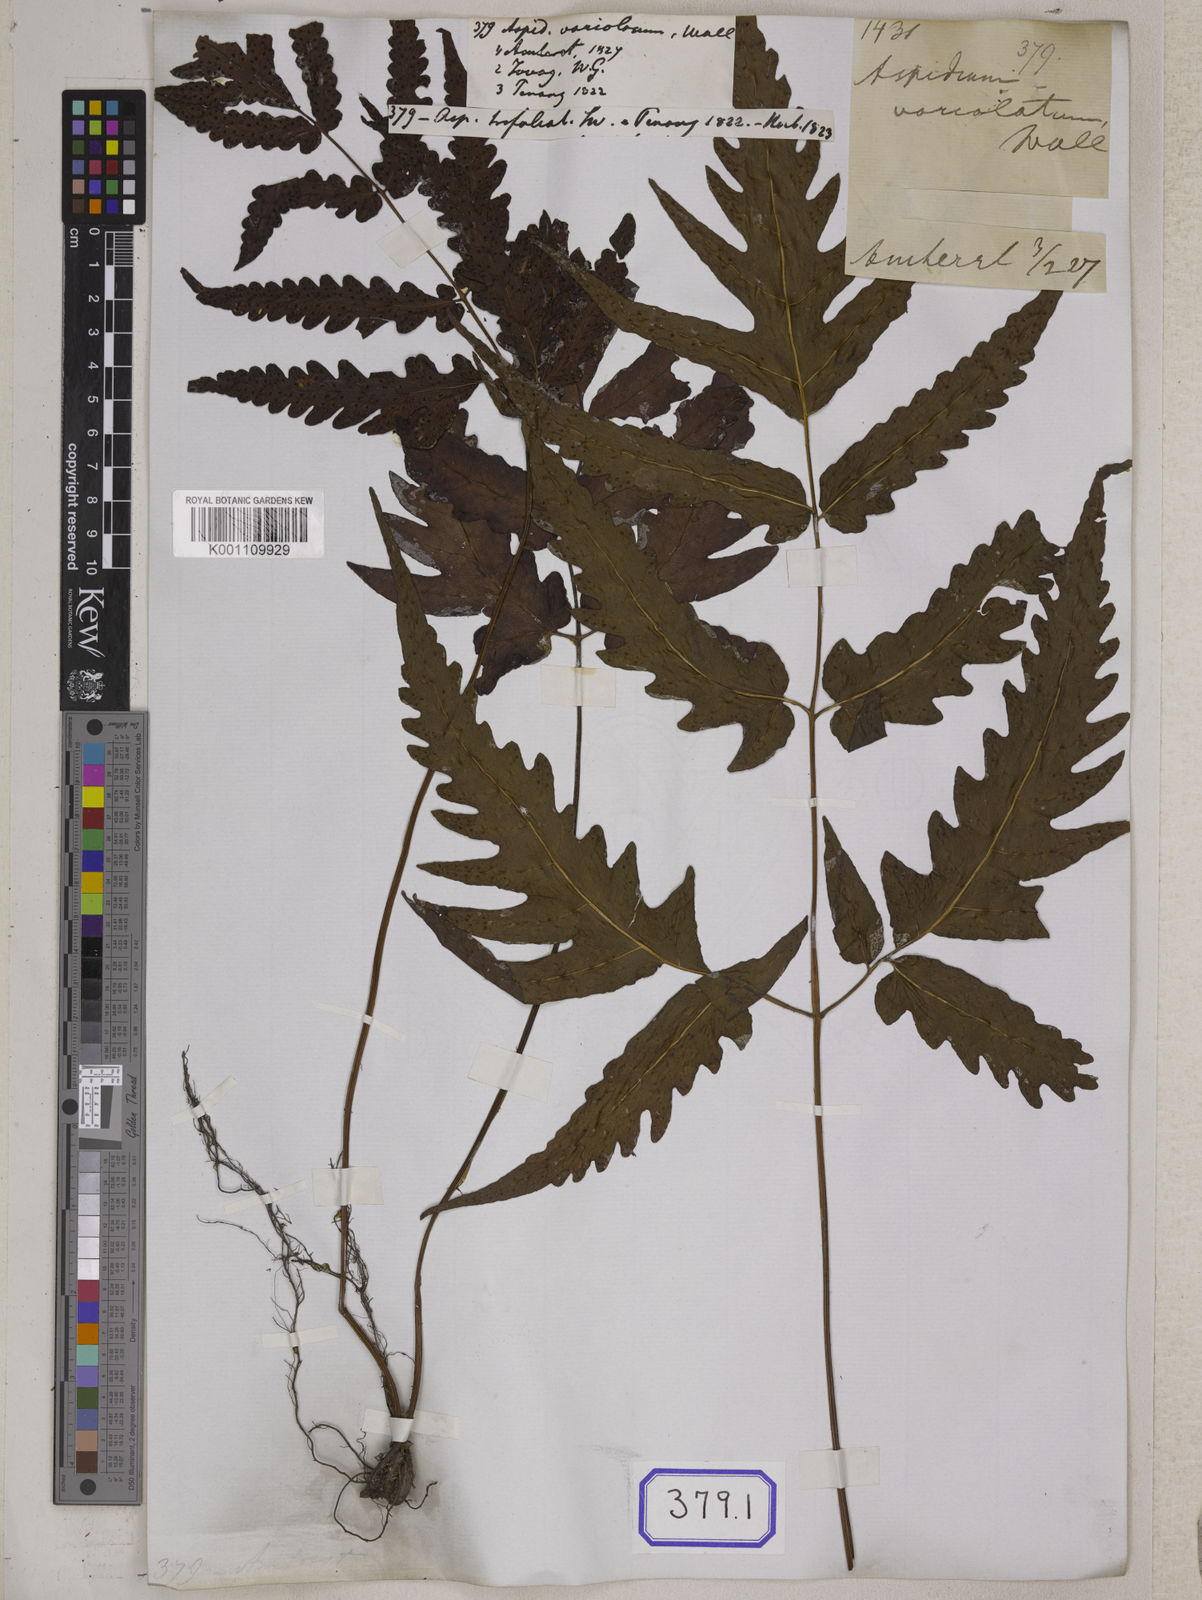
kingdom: Plantae
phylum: Tracheophyta
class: Polypodiopsida
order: Polypodiales
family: Tectariaceae
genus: Tectaria
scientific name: Tectaria impressa
